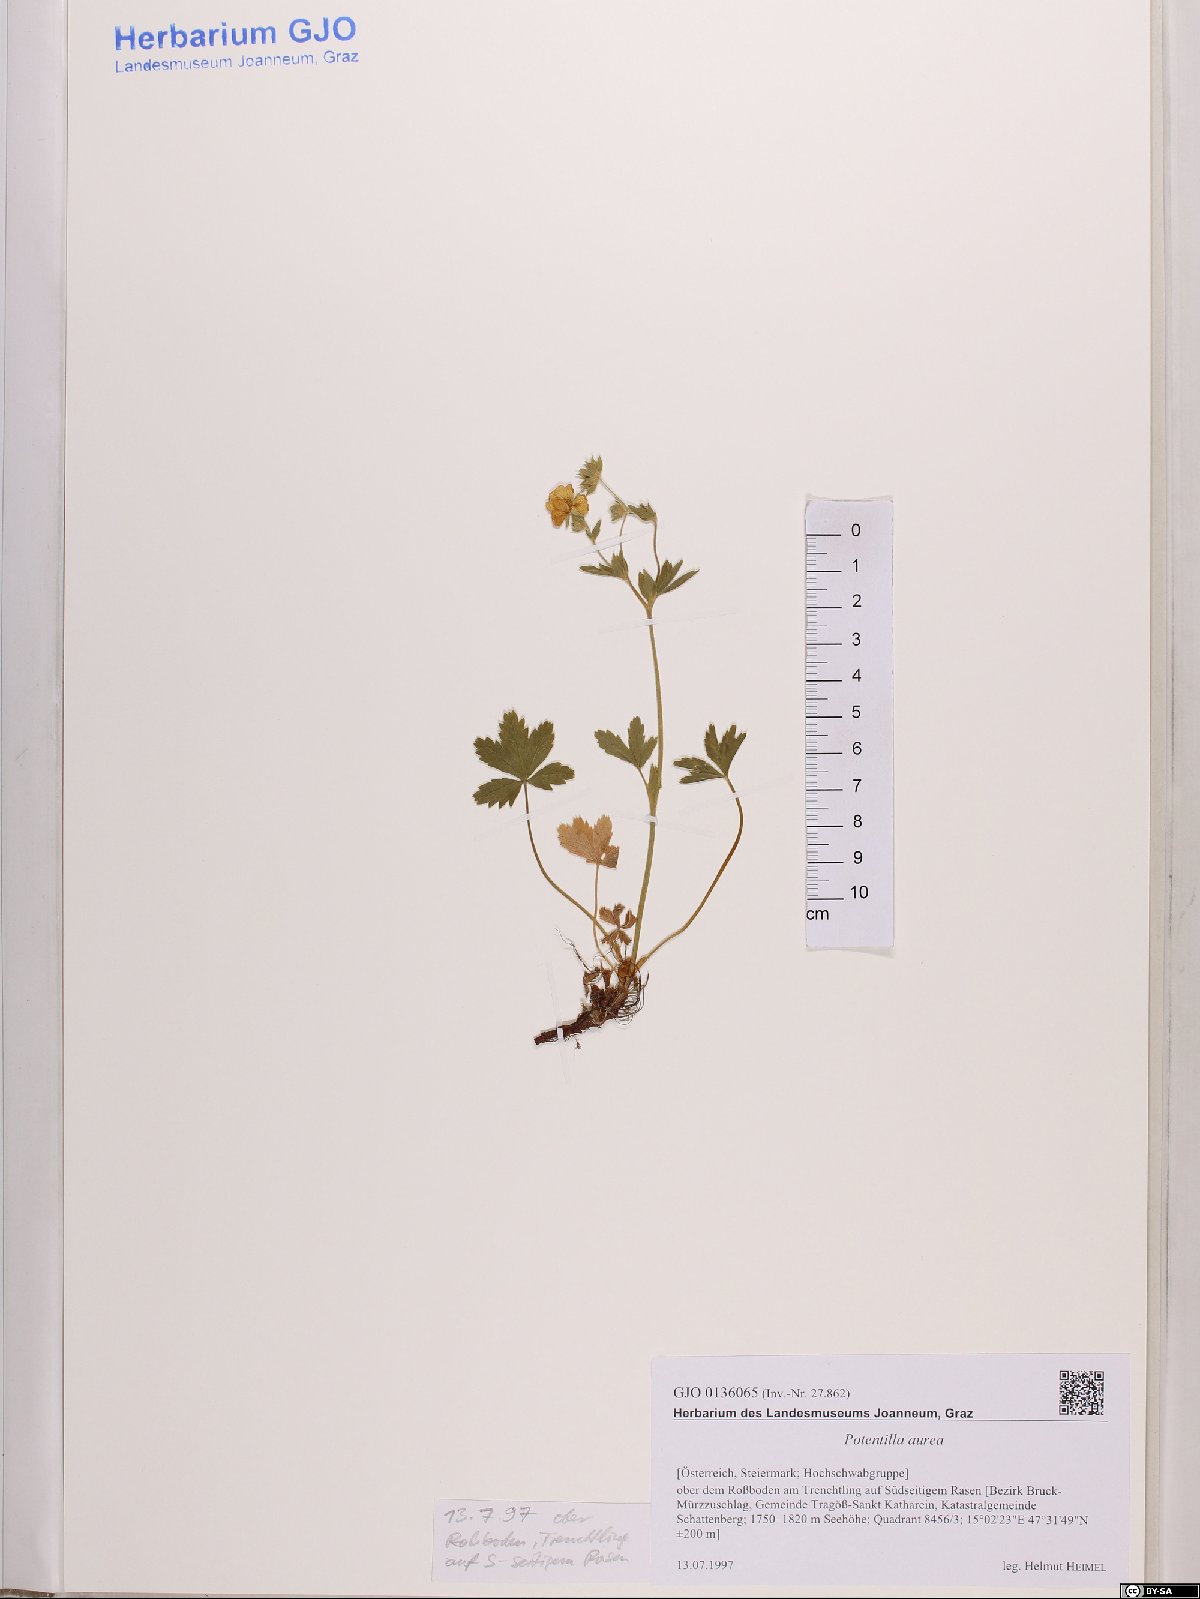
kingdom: Plantae
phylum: Tracheophyta
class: Magnoliopsida
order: Rosales
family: Rosaceae
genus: Potentilla
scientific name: Potentilla aurea
